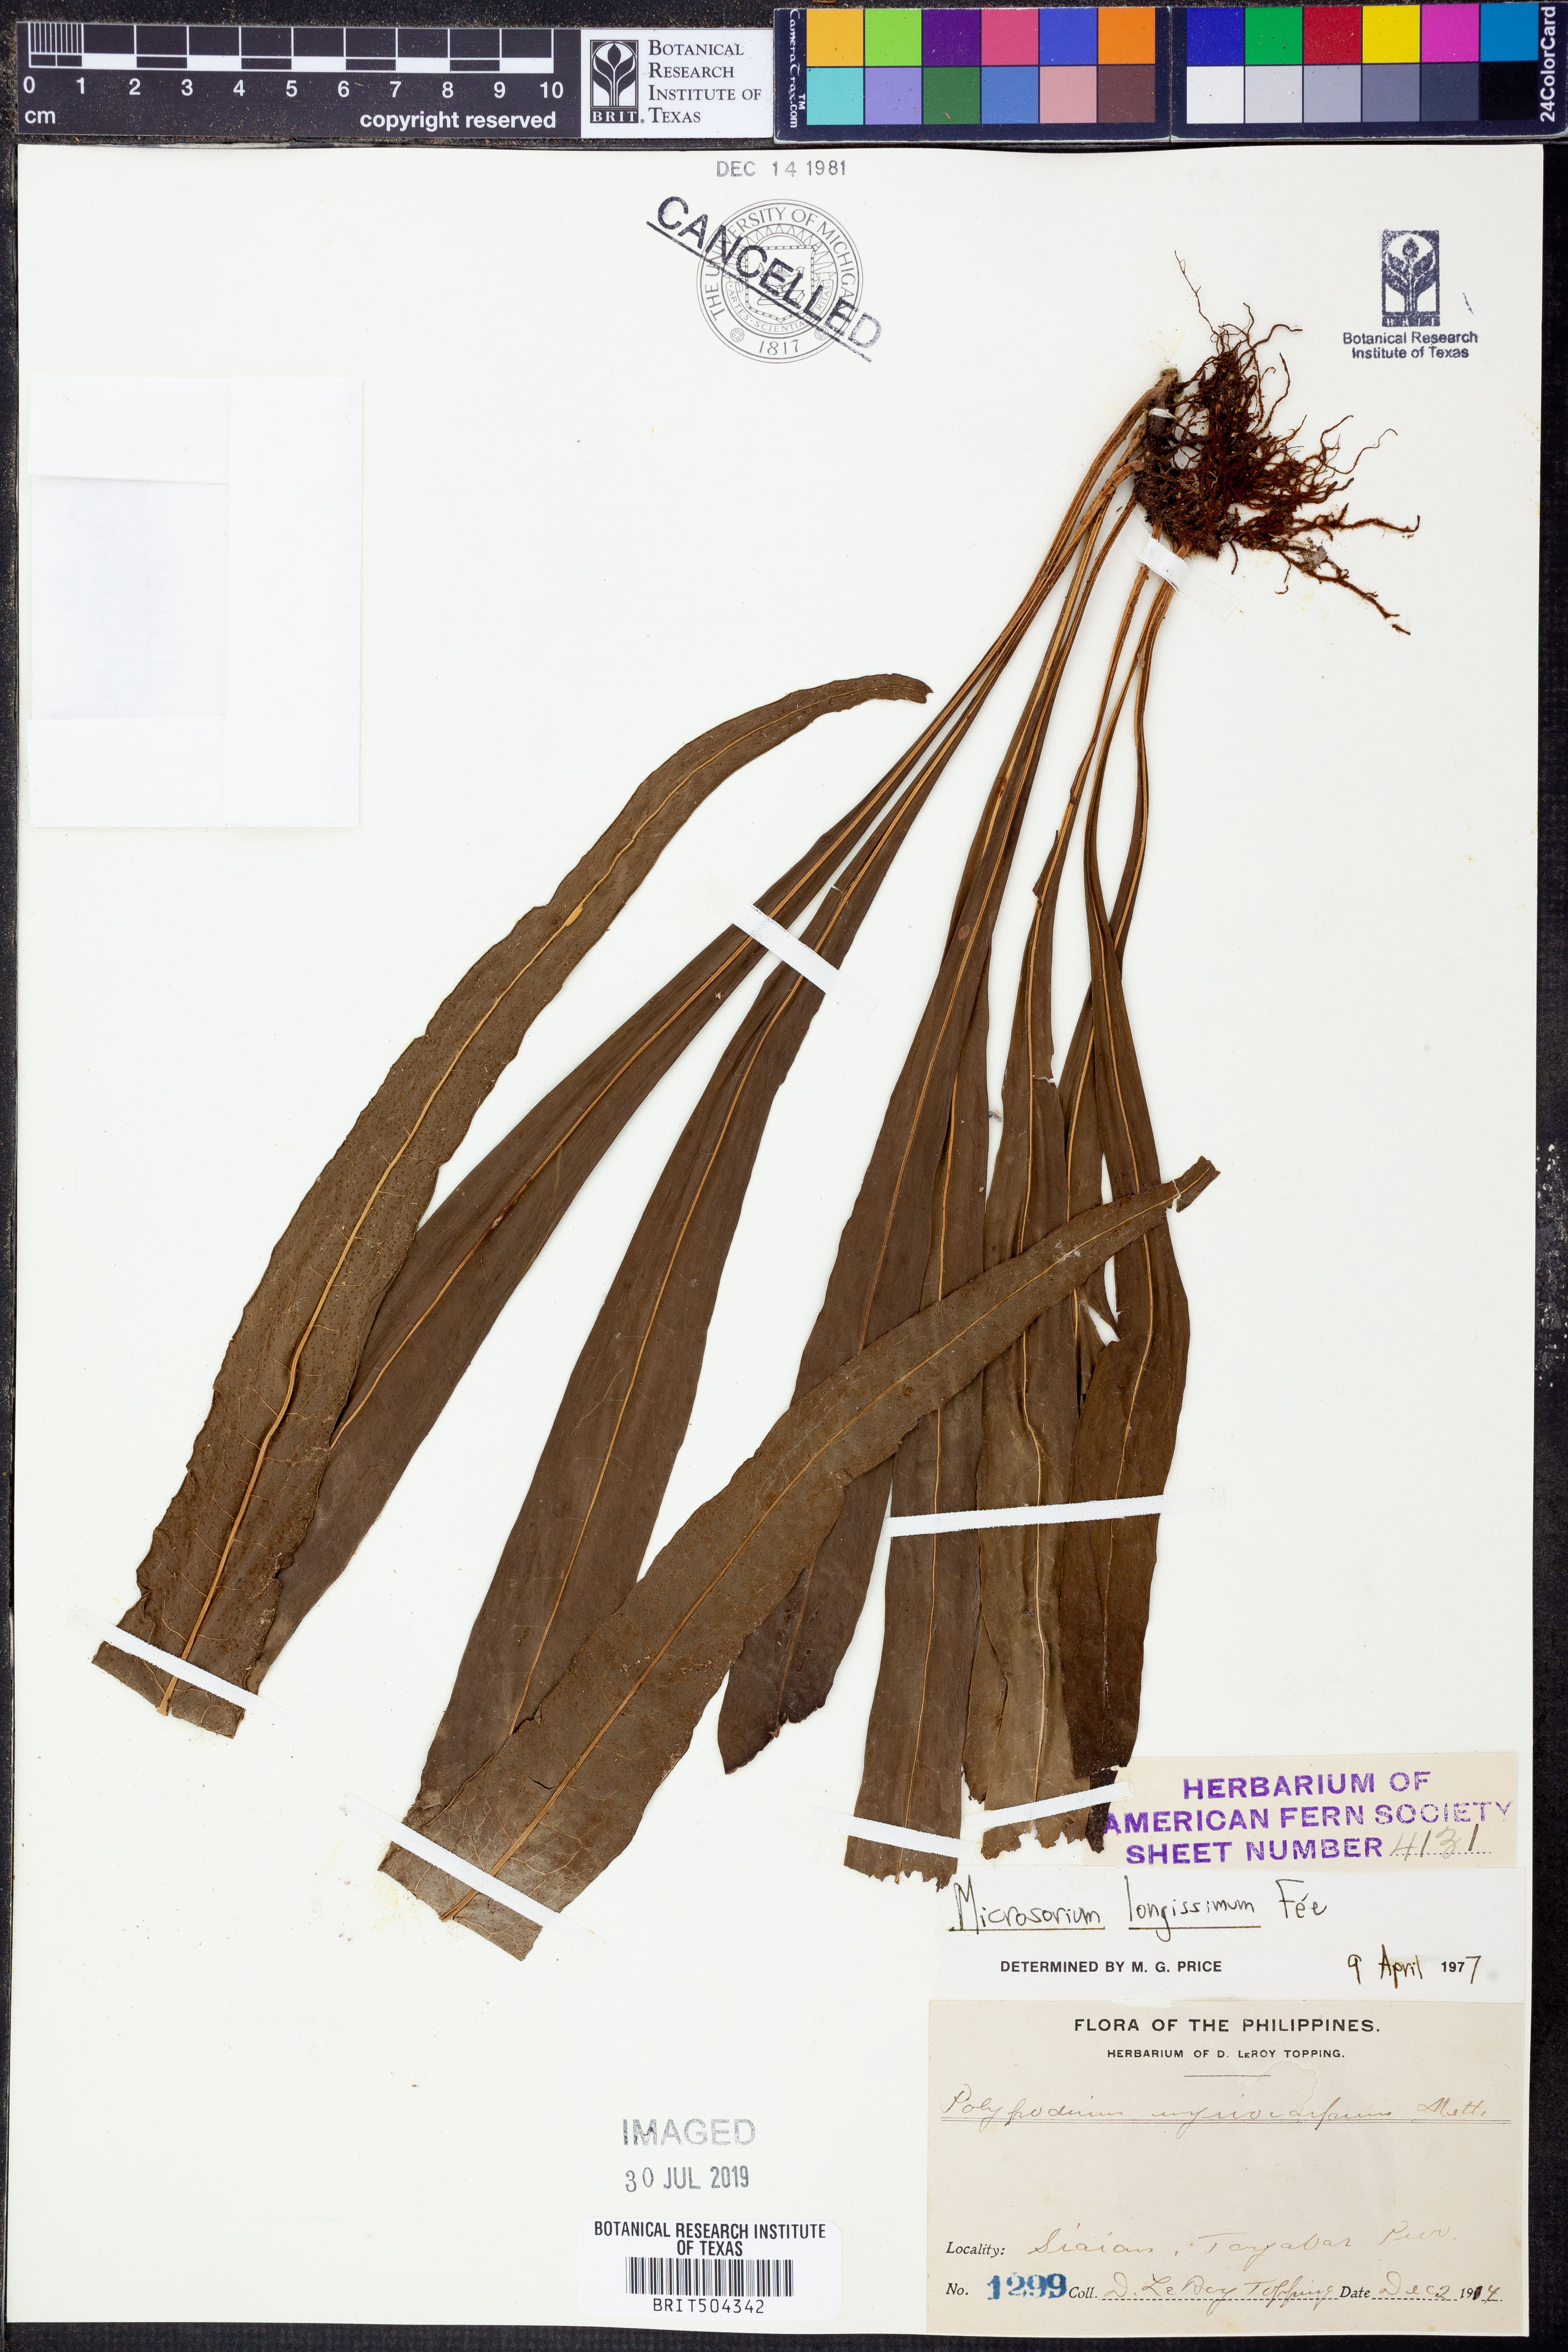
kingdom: Plantae
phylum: Tracheophyta
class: Polypodiopsida
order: Polypodiales
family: Polypodiaceae
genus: Microsorum
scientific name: Microsorum longissimum
